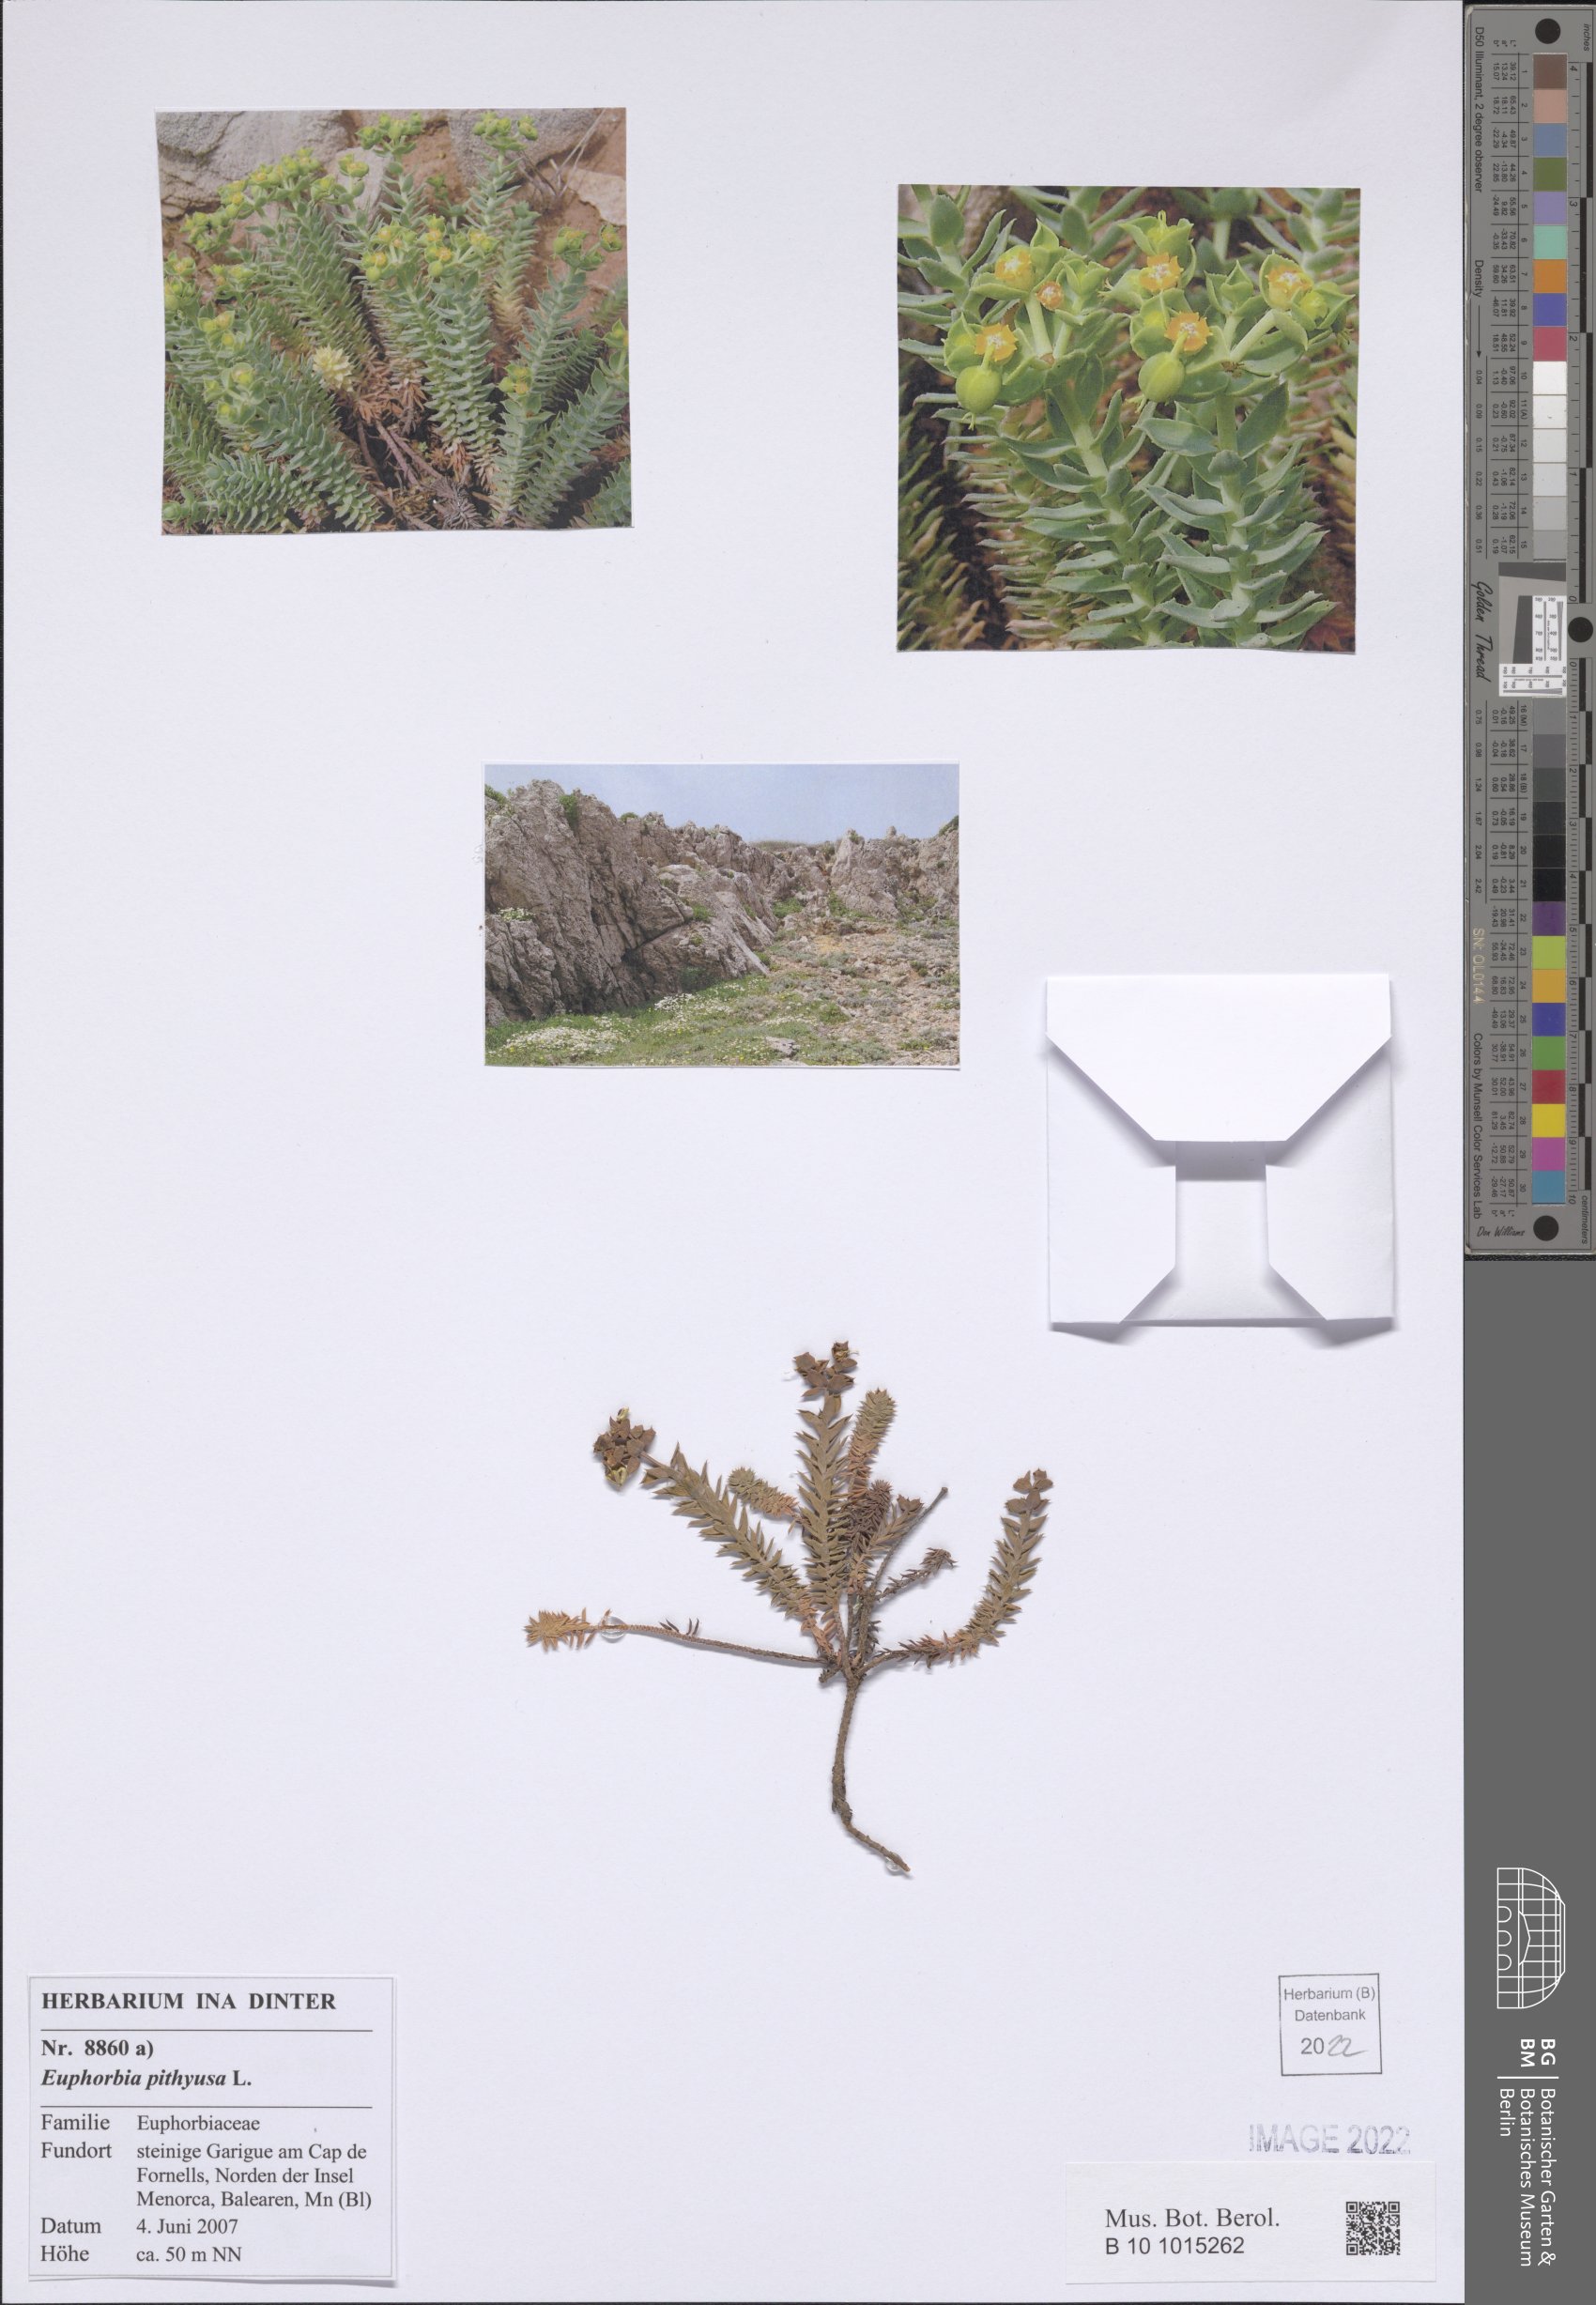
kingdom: Plantae
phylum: Tracheophyta
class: Magnoliopsida
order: Malpighiales
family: Euphorbiaceae
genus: Euphorbia
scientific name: Euphorbia pithyusa
